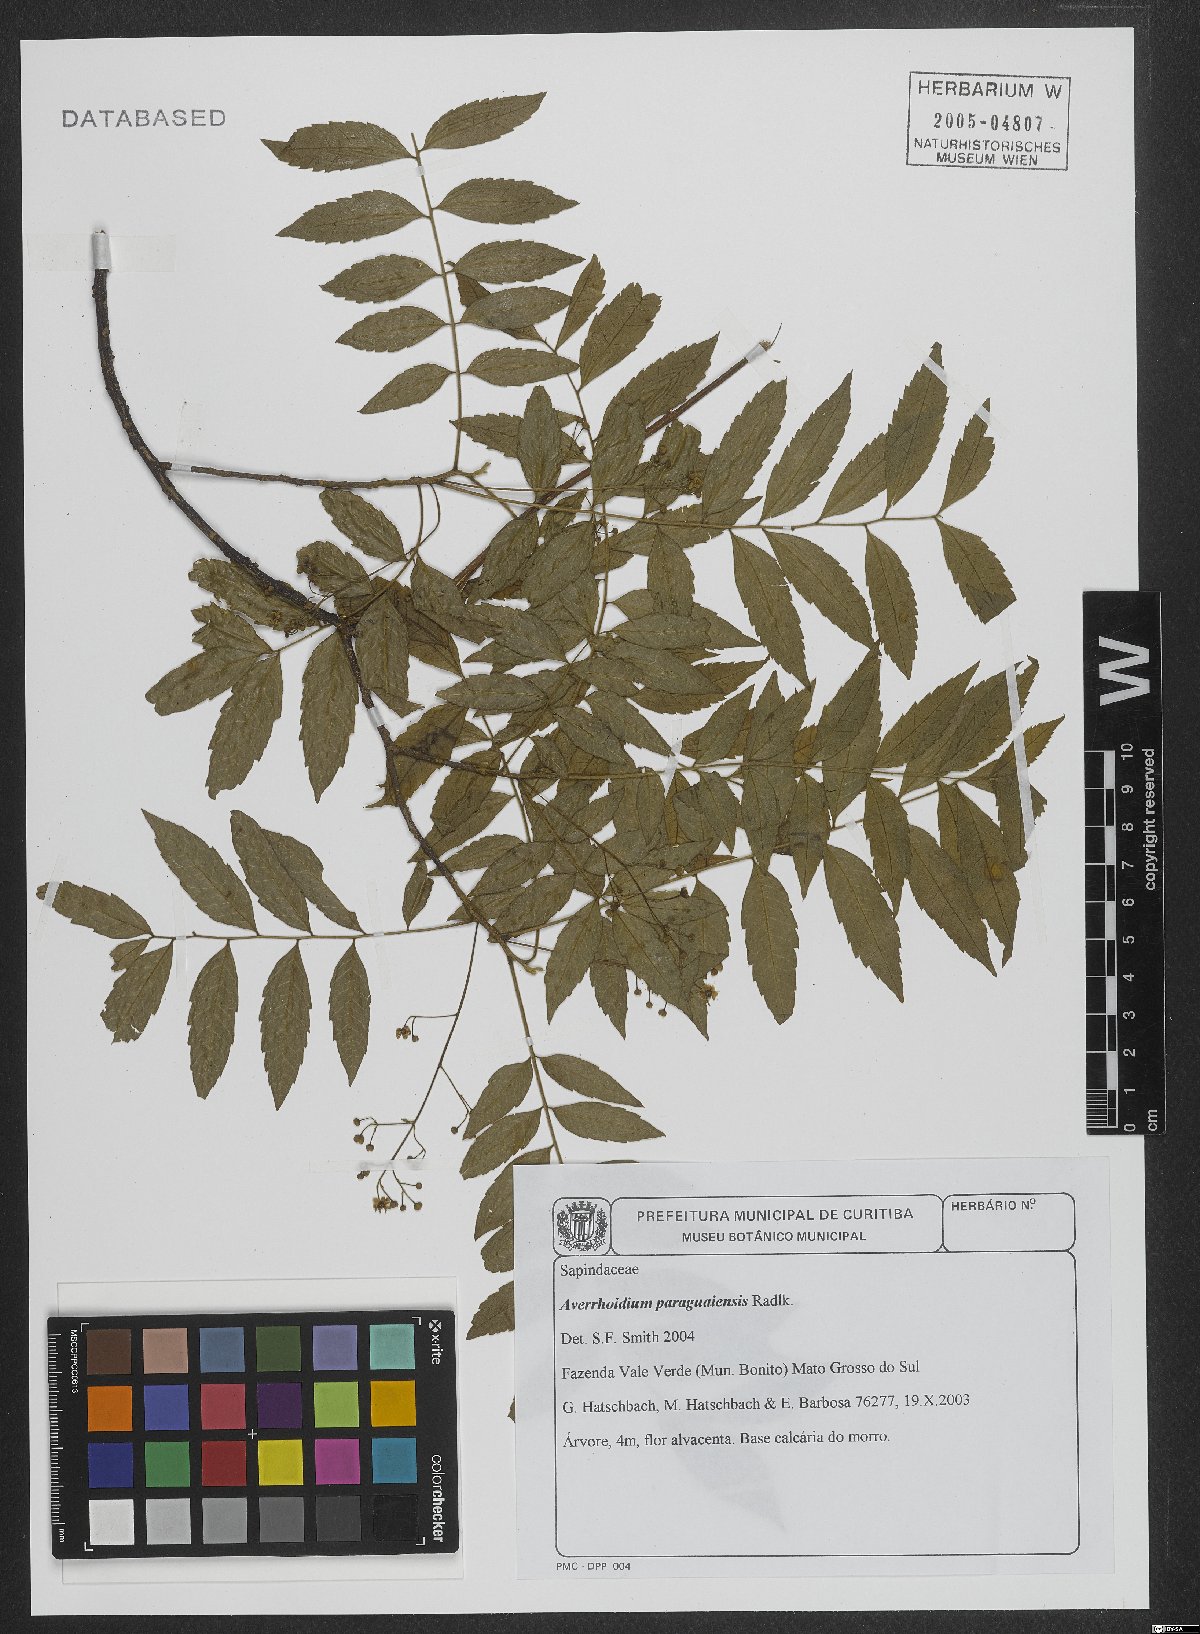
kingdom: Plantae
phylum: Tracheophyta
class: Magnoliopsida
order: Sapindales
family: Sapindaceae
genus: Averrhoidium
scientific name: Averrhoidium paraguaiense
